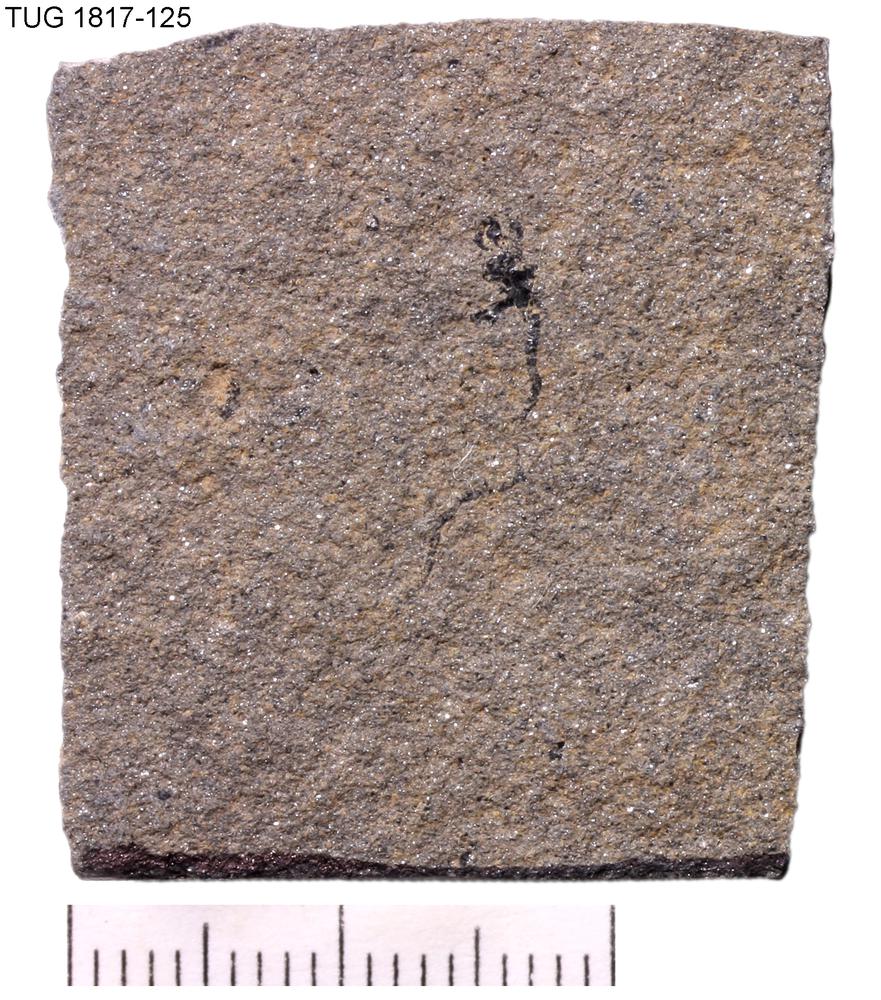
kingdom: Animalia
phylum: Chordata
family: Dipteridae
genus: Palaeospondylus
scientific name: Palaeospondylus
